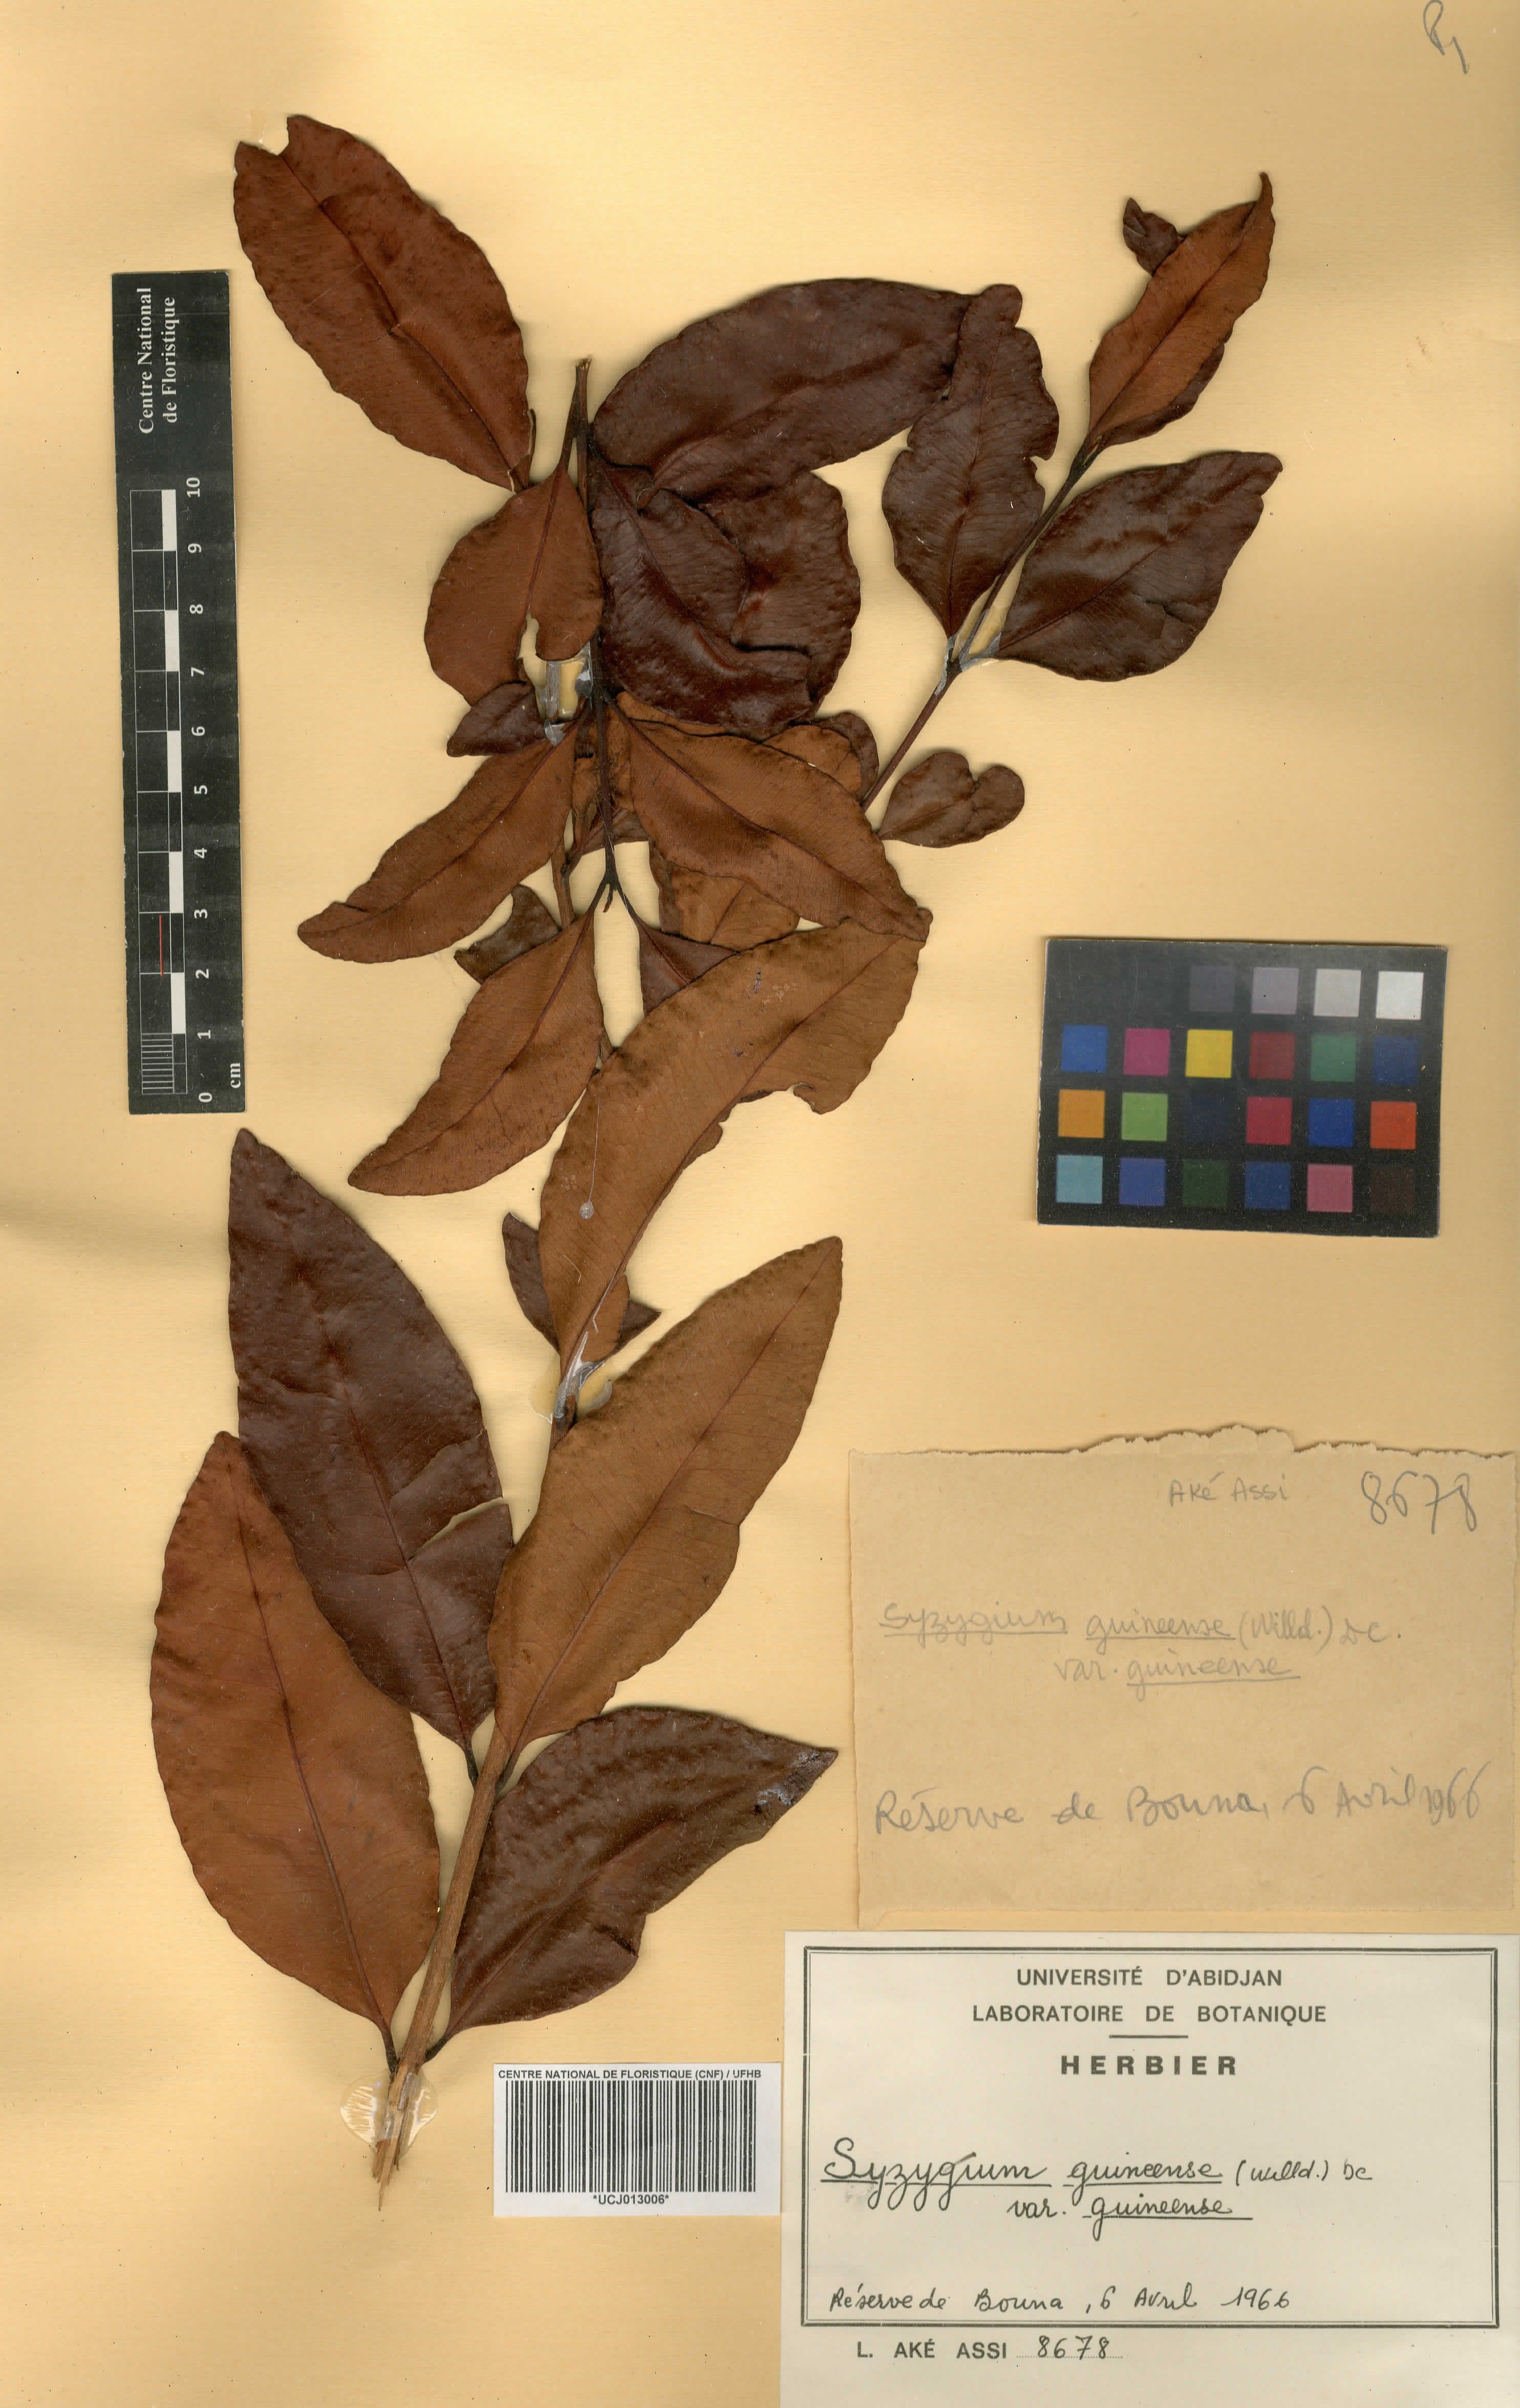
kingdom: Plantae
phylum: Tracheophyta
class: Magnoliopsida
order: Myrtales
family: Myrtaceae
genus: Syzygium
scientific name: Syzygium guineense
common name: Water-pear
